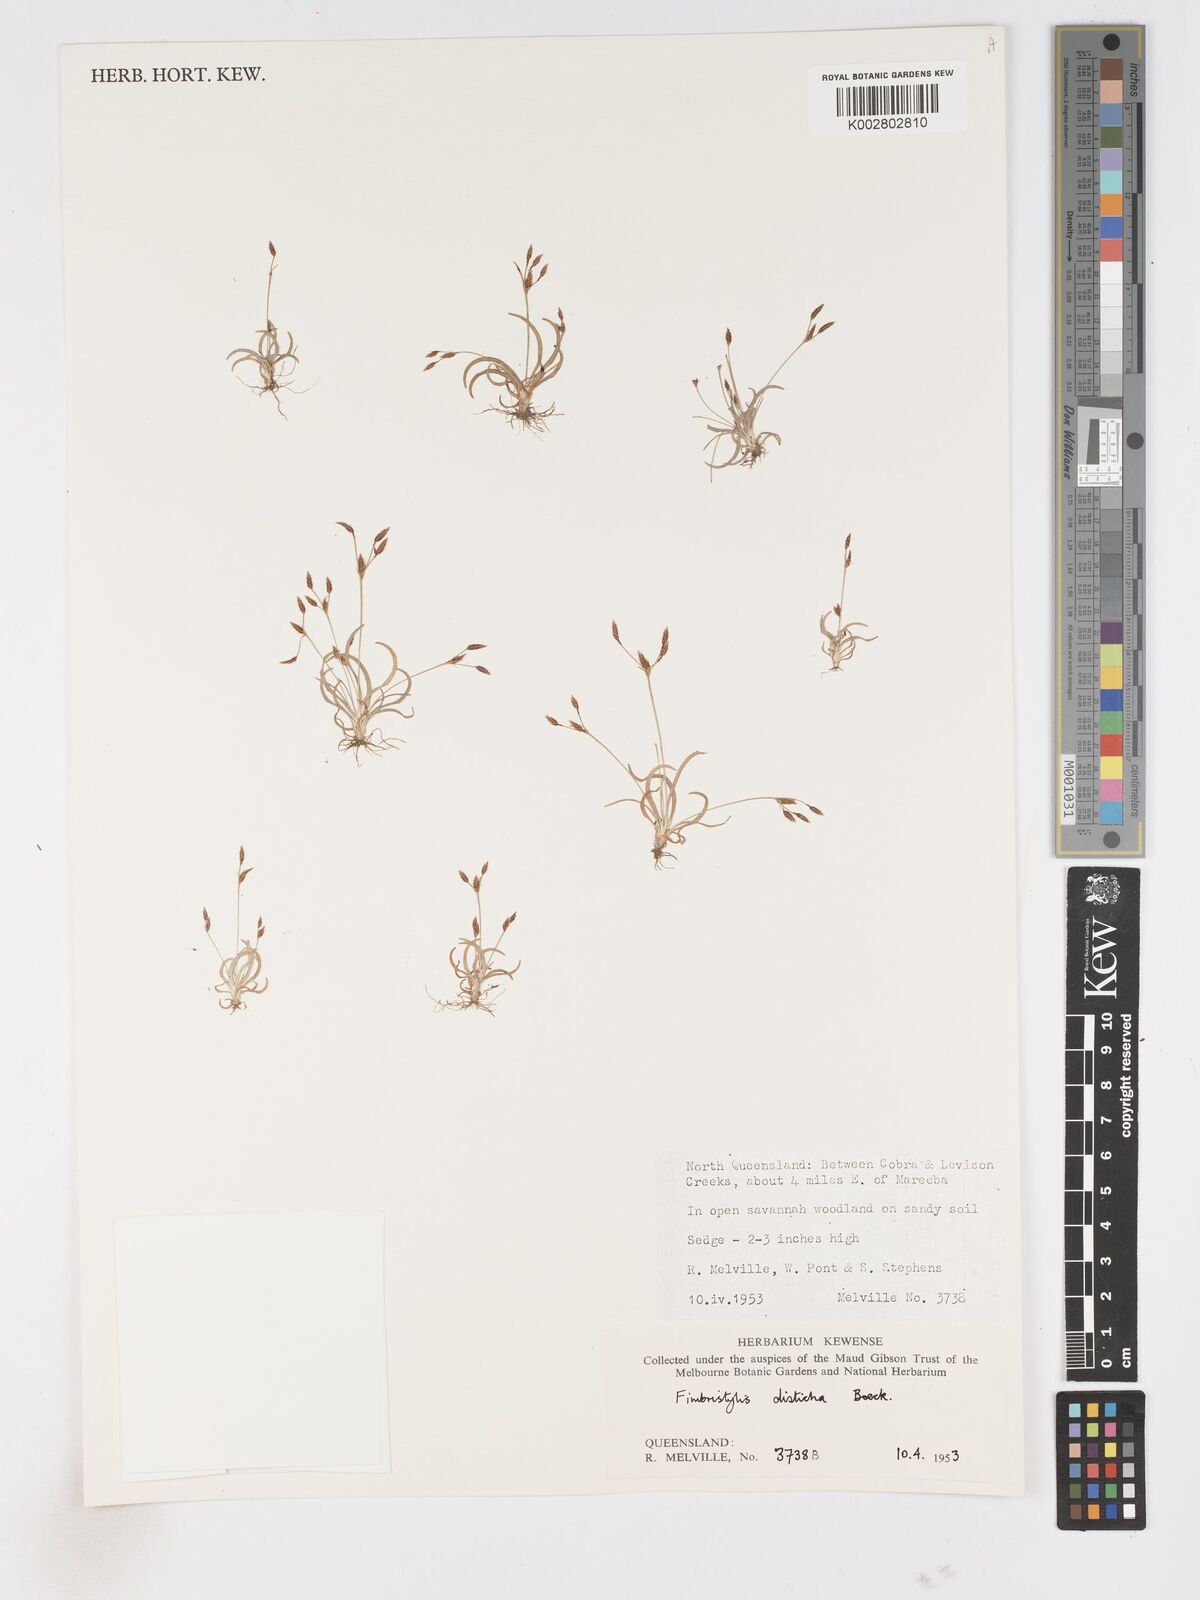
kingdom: Plantae
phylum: Tracheophyta
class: Liliopsida
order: Poales
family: Cyperaceae
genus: Fimbristylis
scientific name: Fimbristylis disticha
